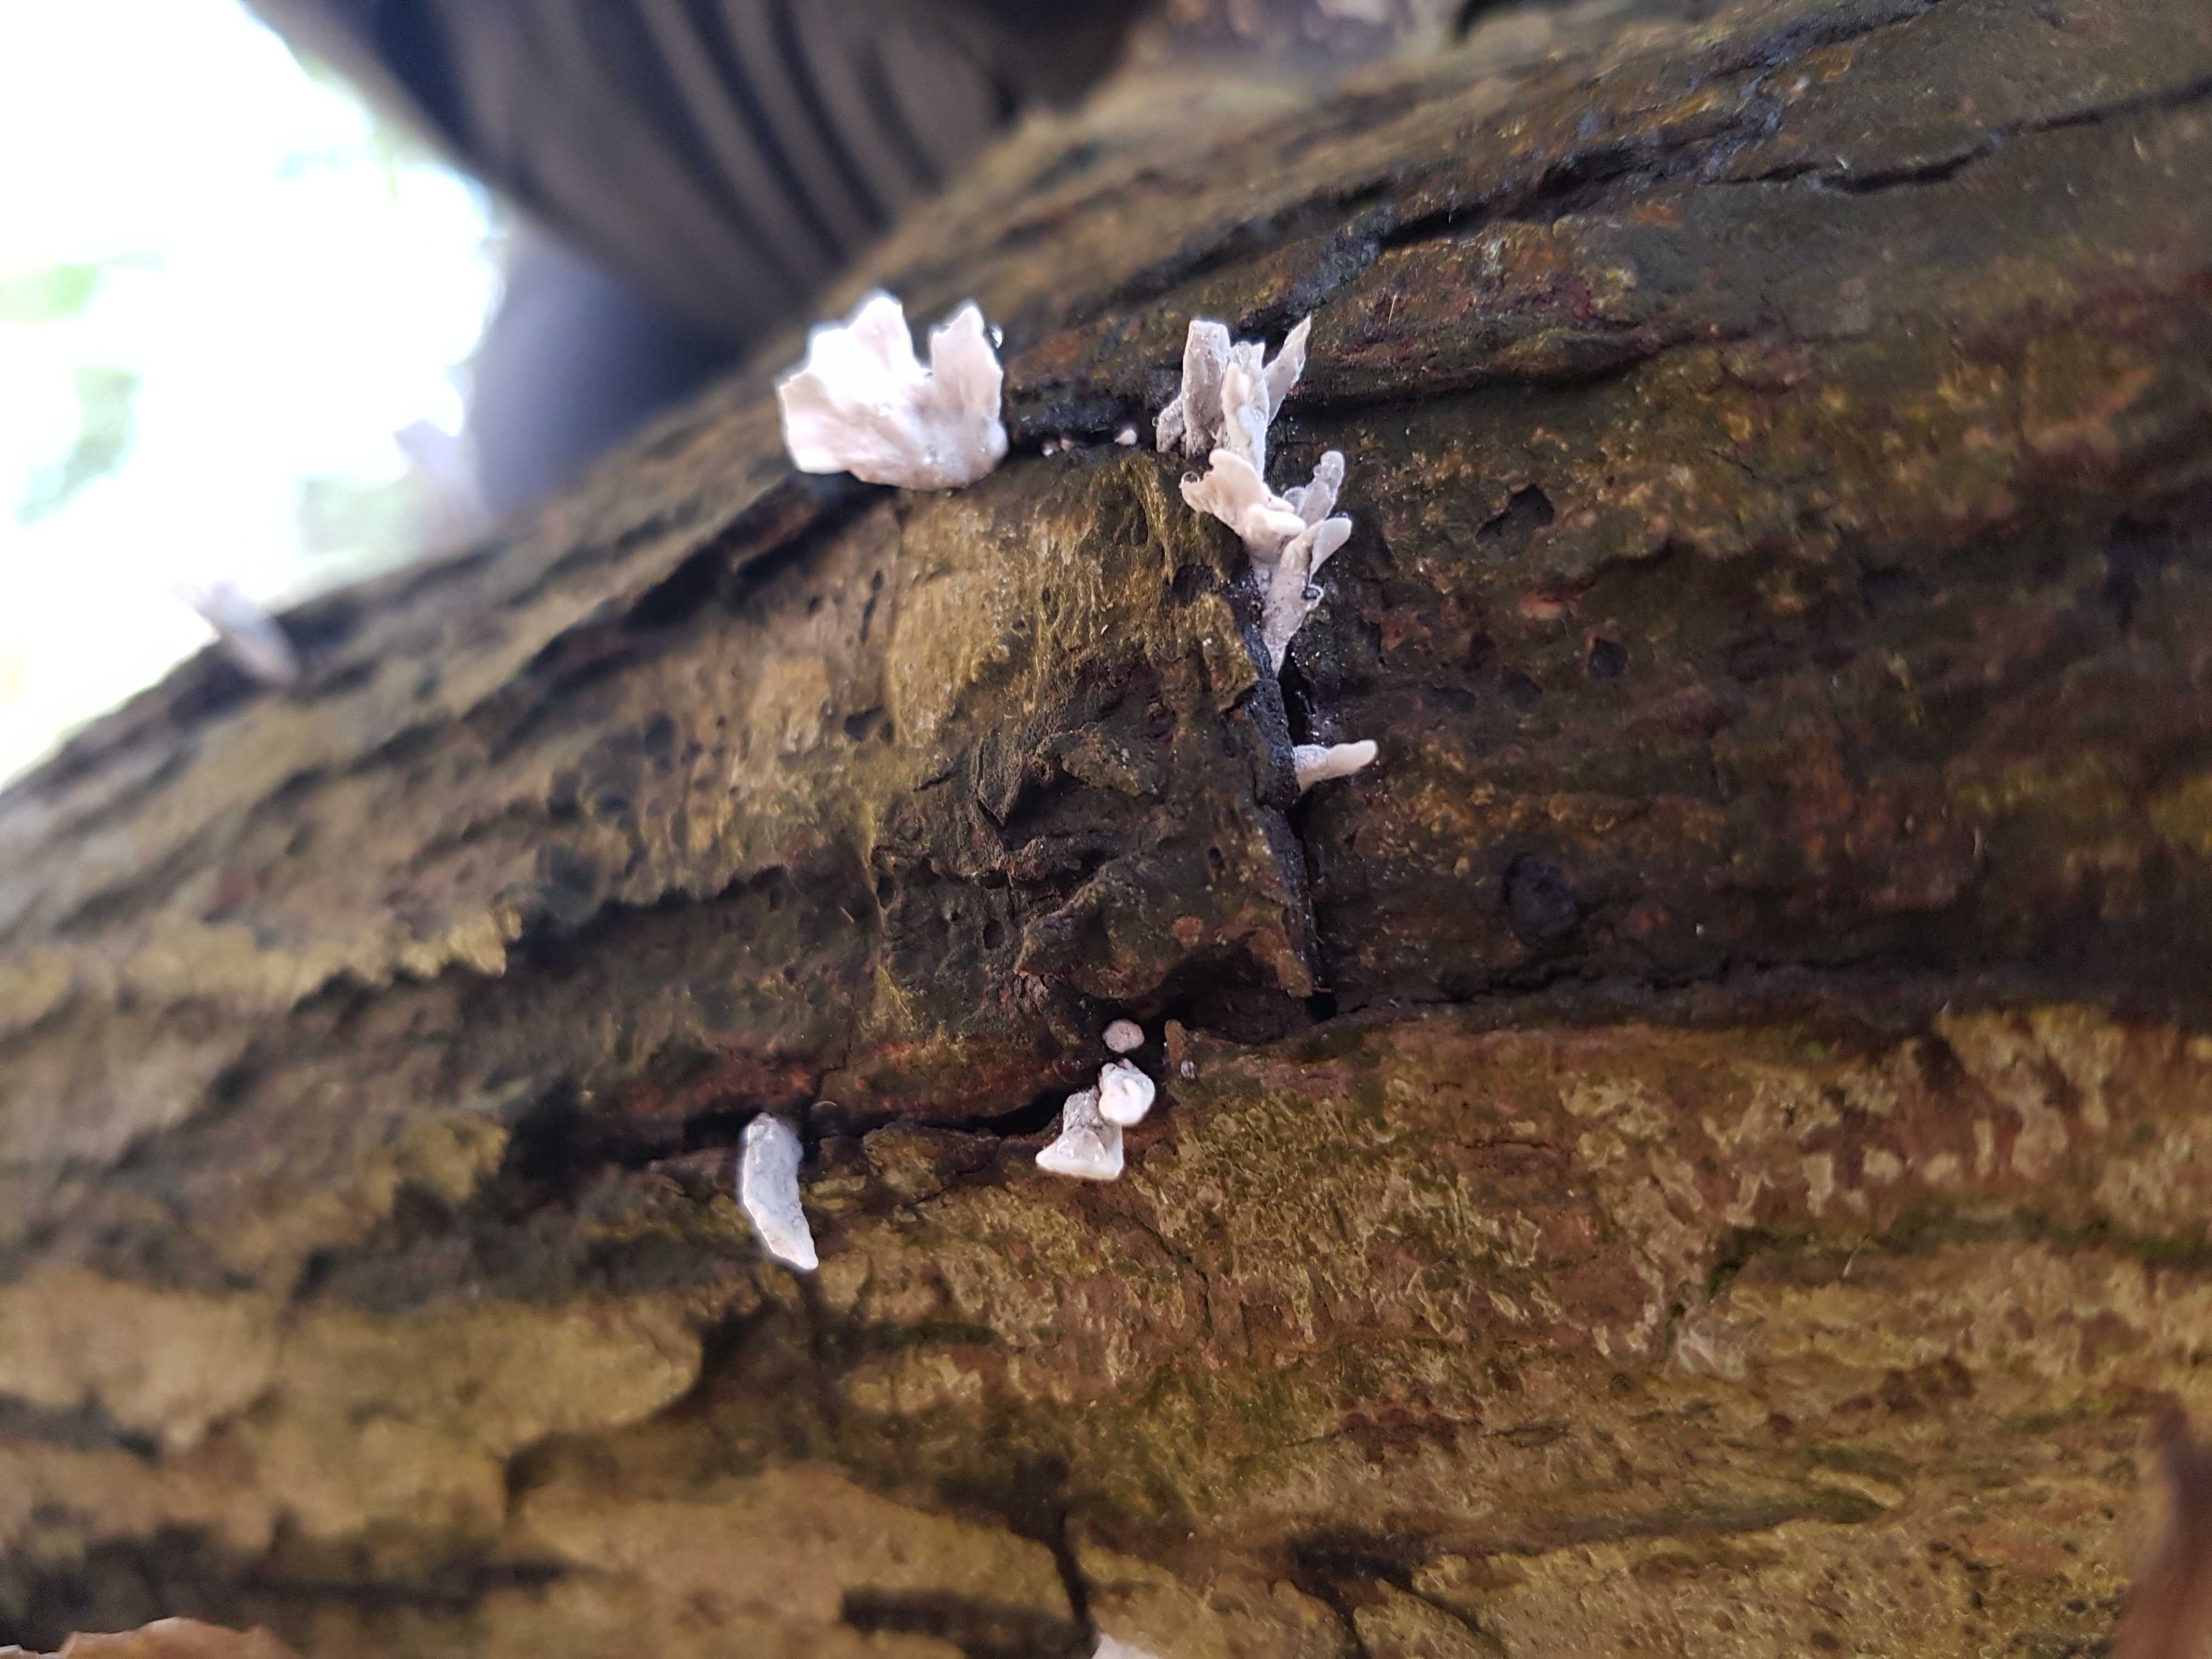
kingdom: Fungi
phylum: Ascomycota
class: Sordariomycetes
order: Xylariales
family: Xylariaceae
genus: Xylaria
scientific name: Xylaria hypoxylon
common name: grenet stødsvamp
